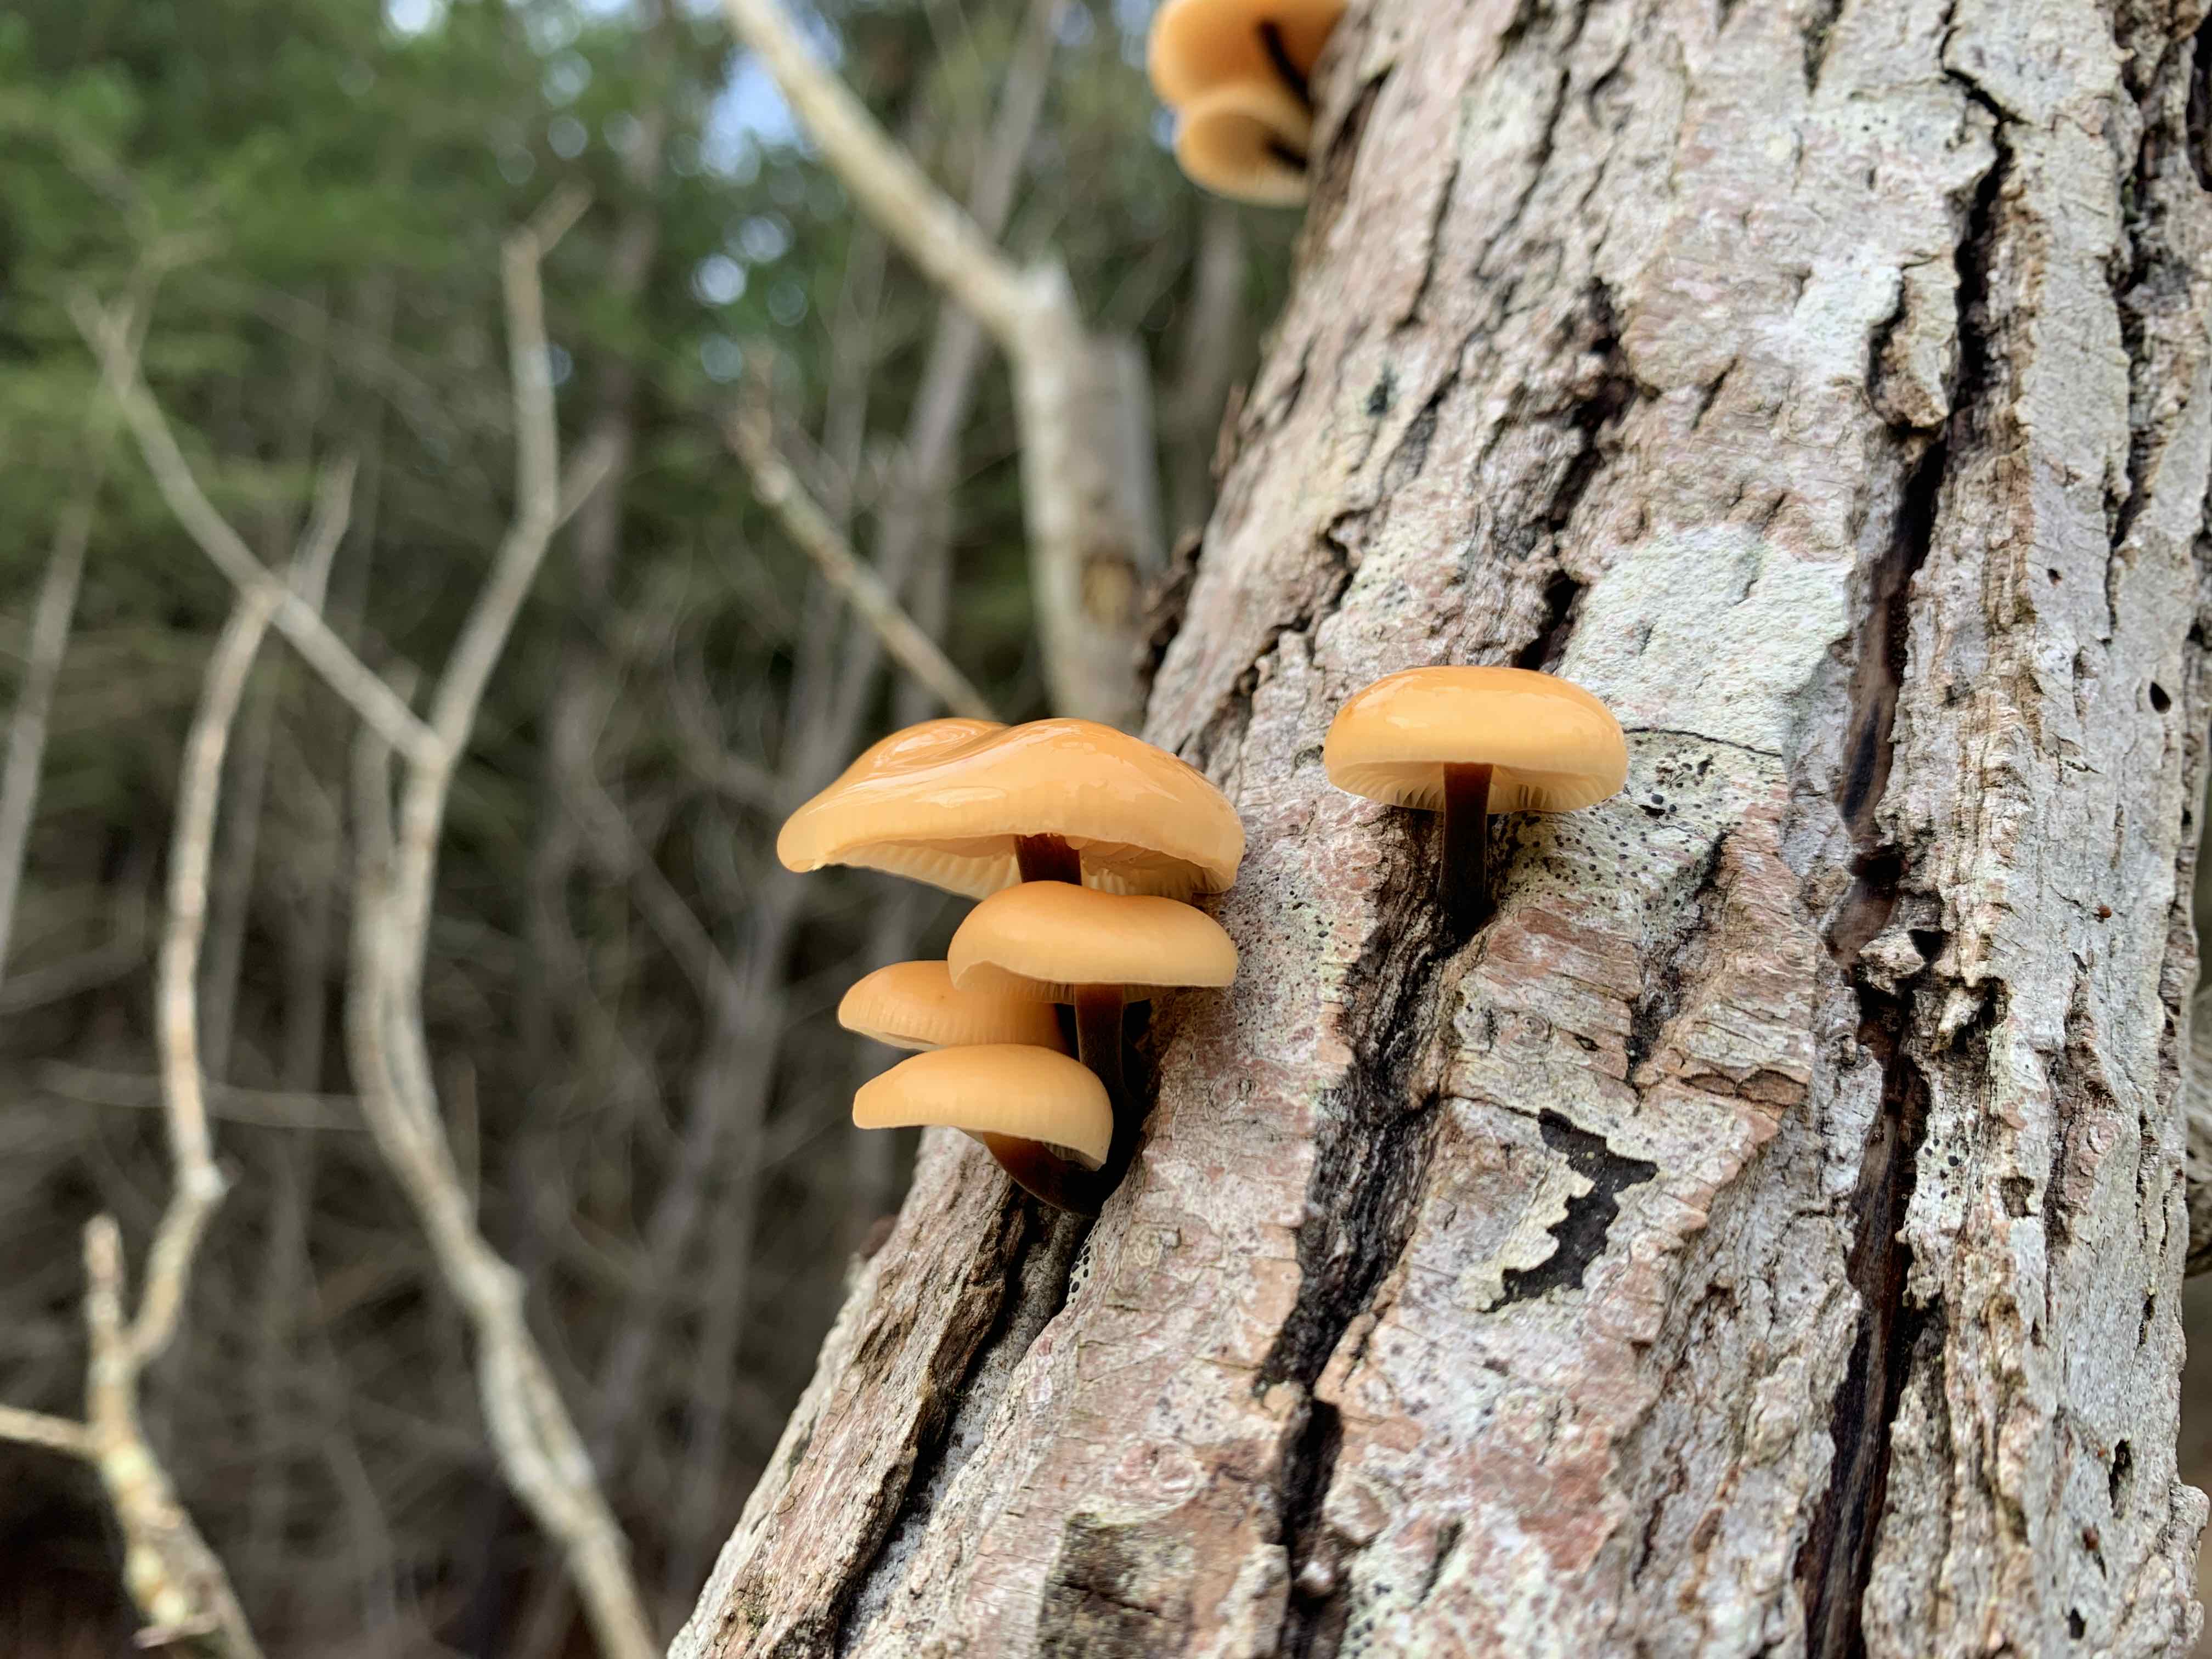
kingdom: Fungi
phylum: Basidiomycota
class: Agaricomycetes
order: Agaricales
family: Physalacriaceae
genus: Flammulina
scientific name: Flammulina
